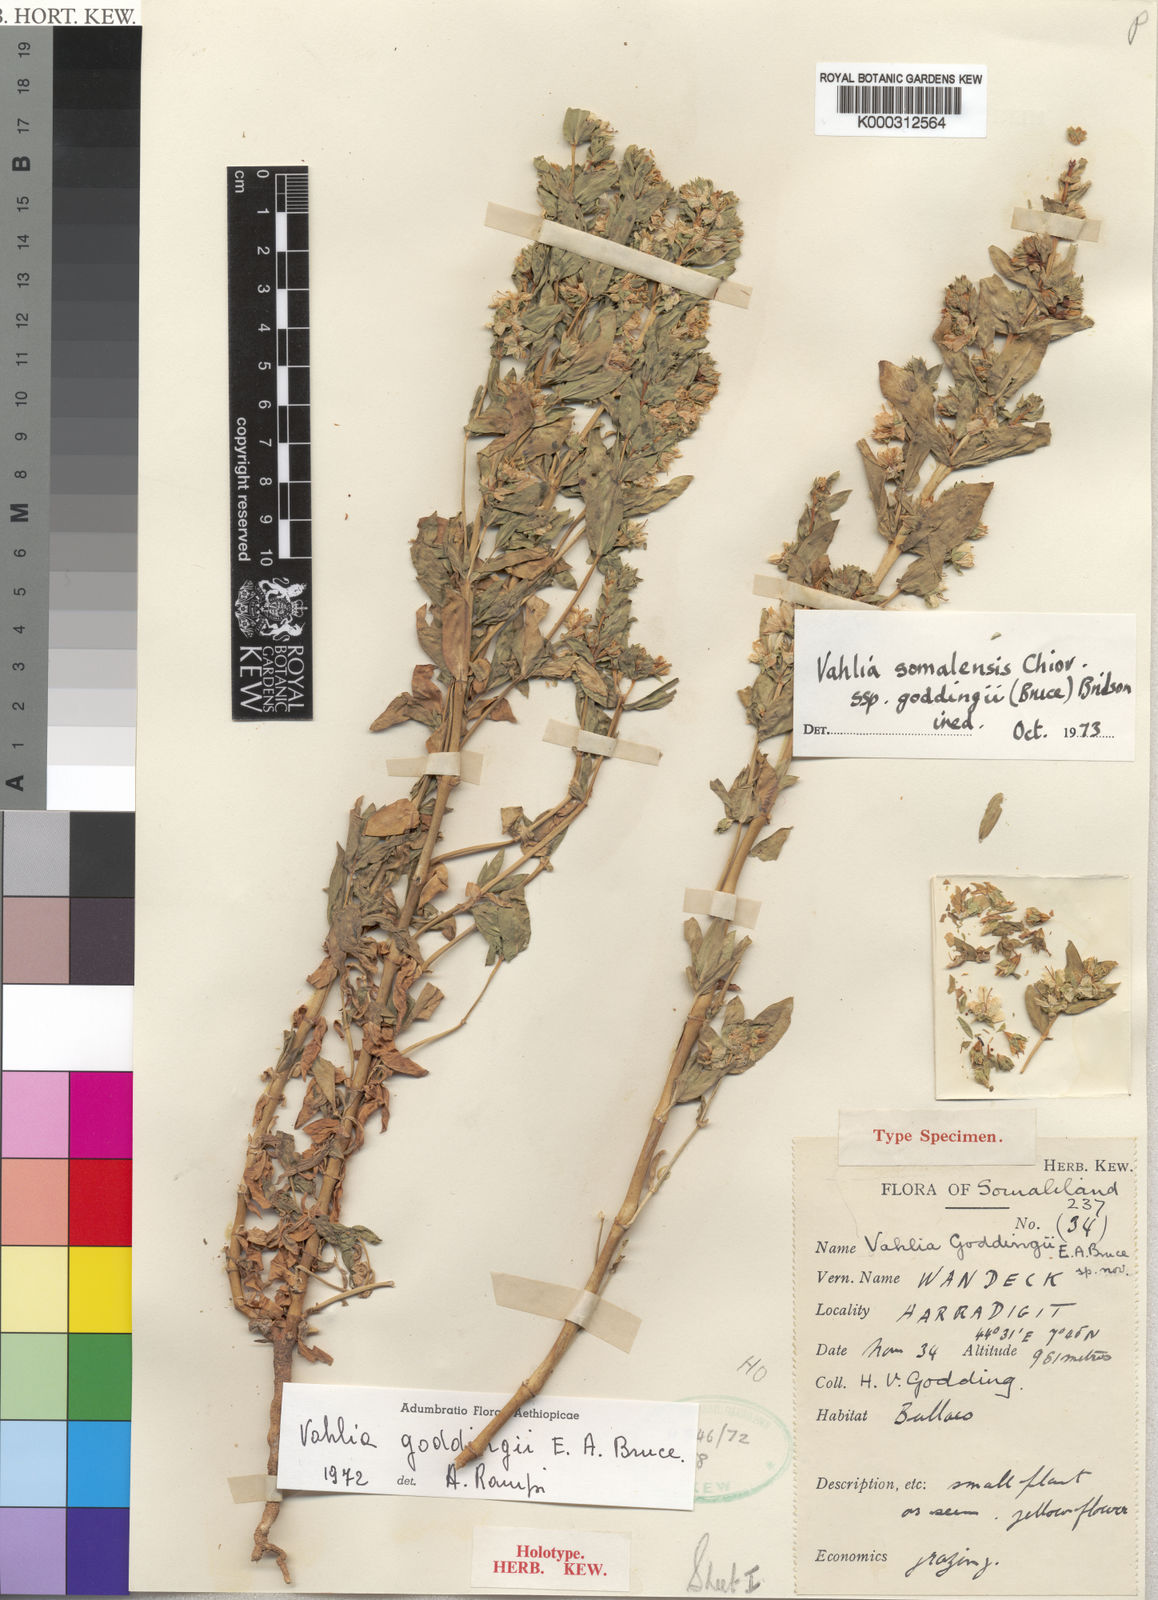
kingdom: Plantae
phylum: Tracheophyta
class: Magnoliopsida
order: Vahliales
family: Vahliaceae
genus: Vahlia
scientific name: Vahlia somalensis
